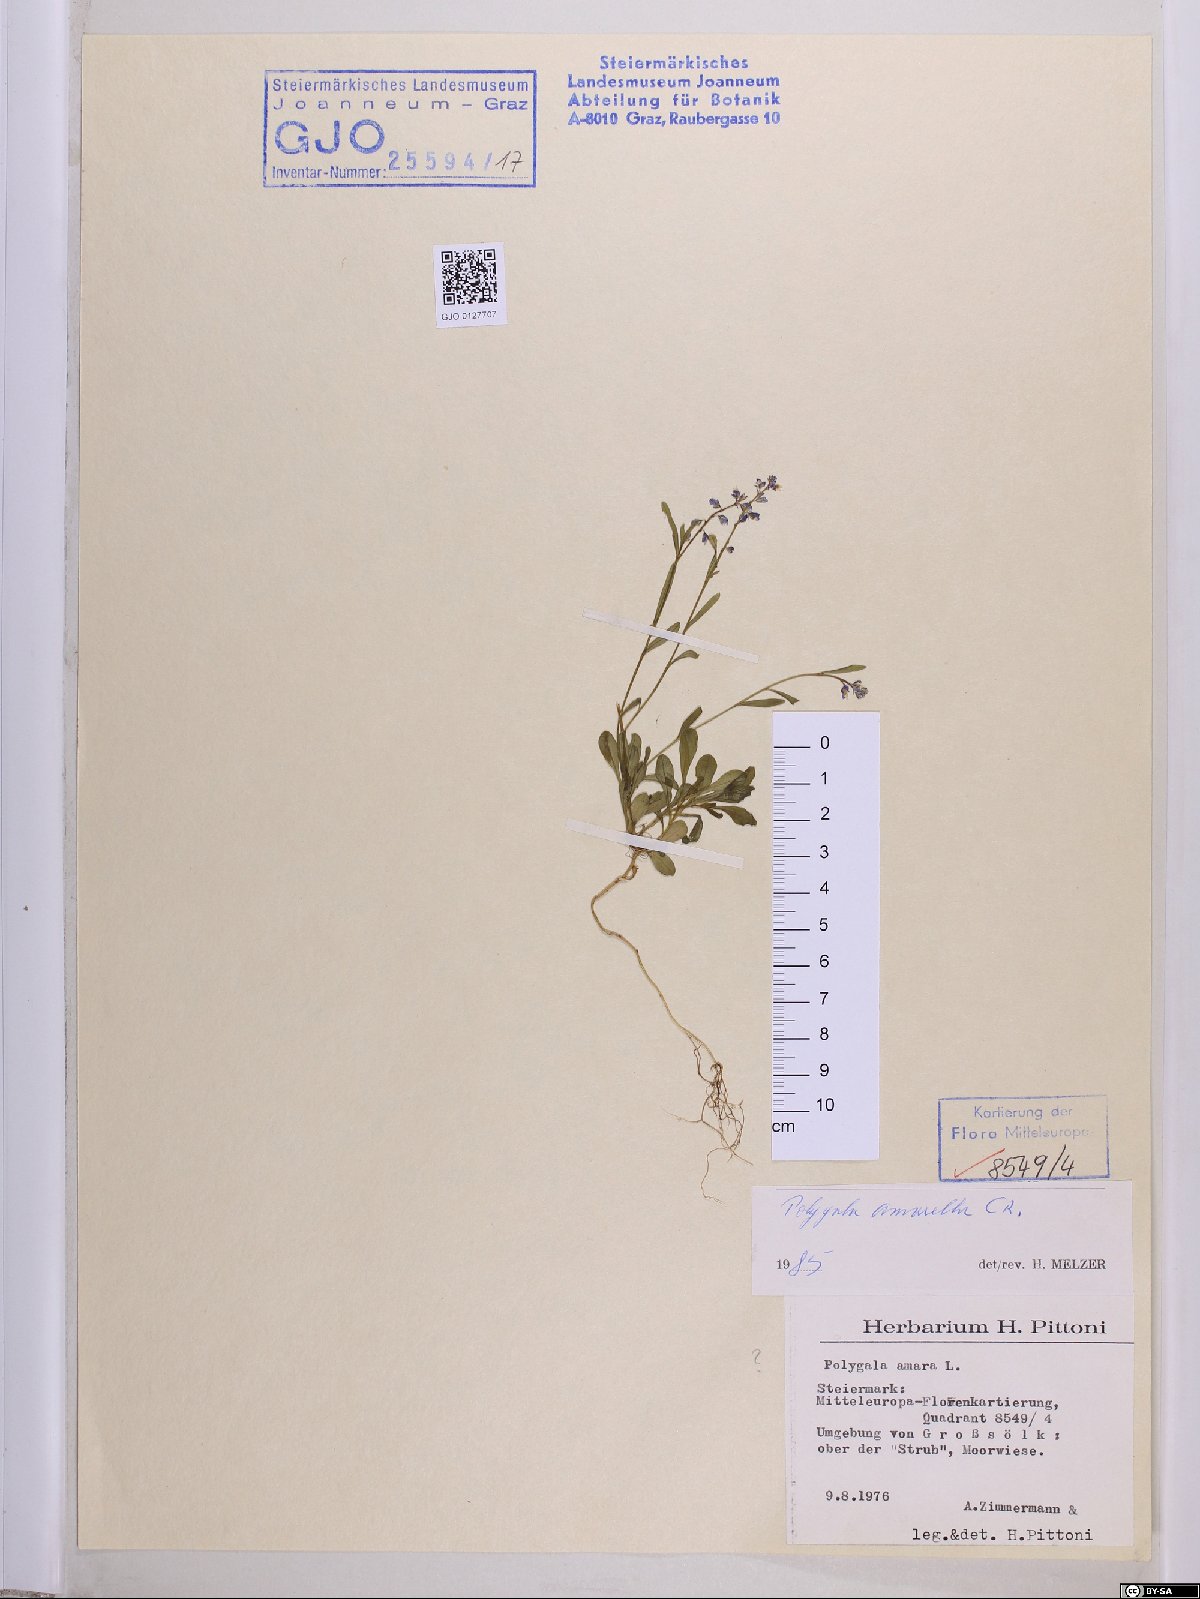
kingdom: Plantae
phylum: Tracheophyta
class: Magnoliopsida
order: Fabales
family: Polygalaceae
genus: Polygala
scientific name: Polygala amarella
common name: Dwarf milkwort
